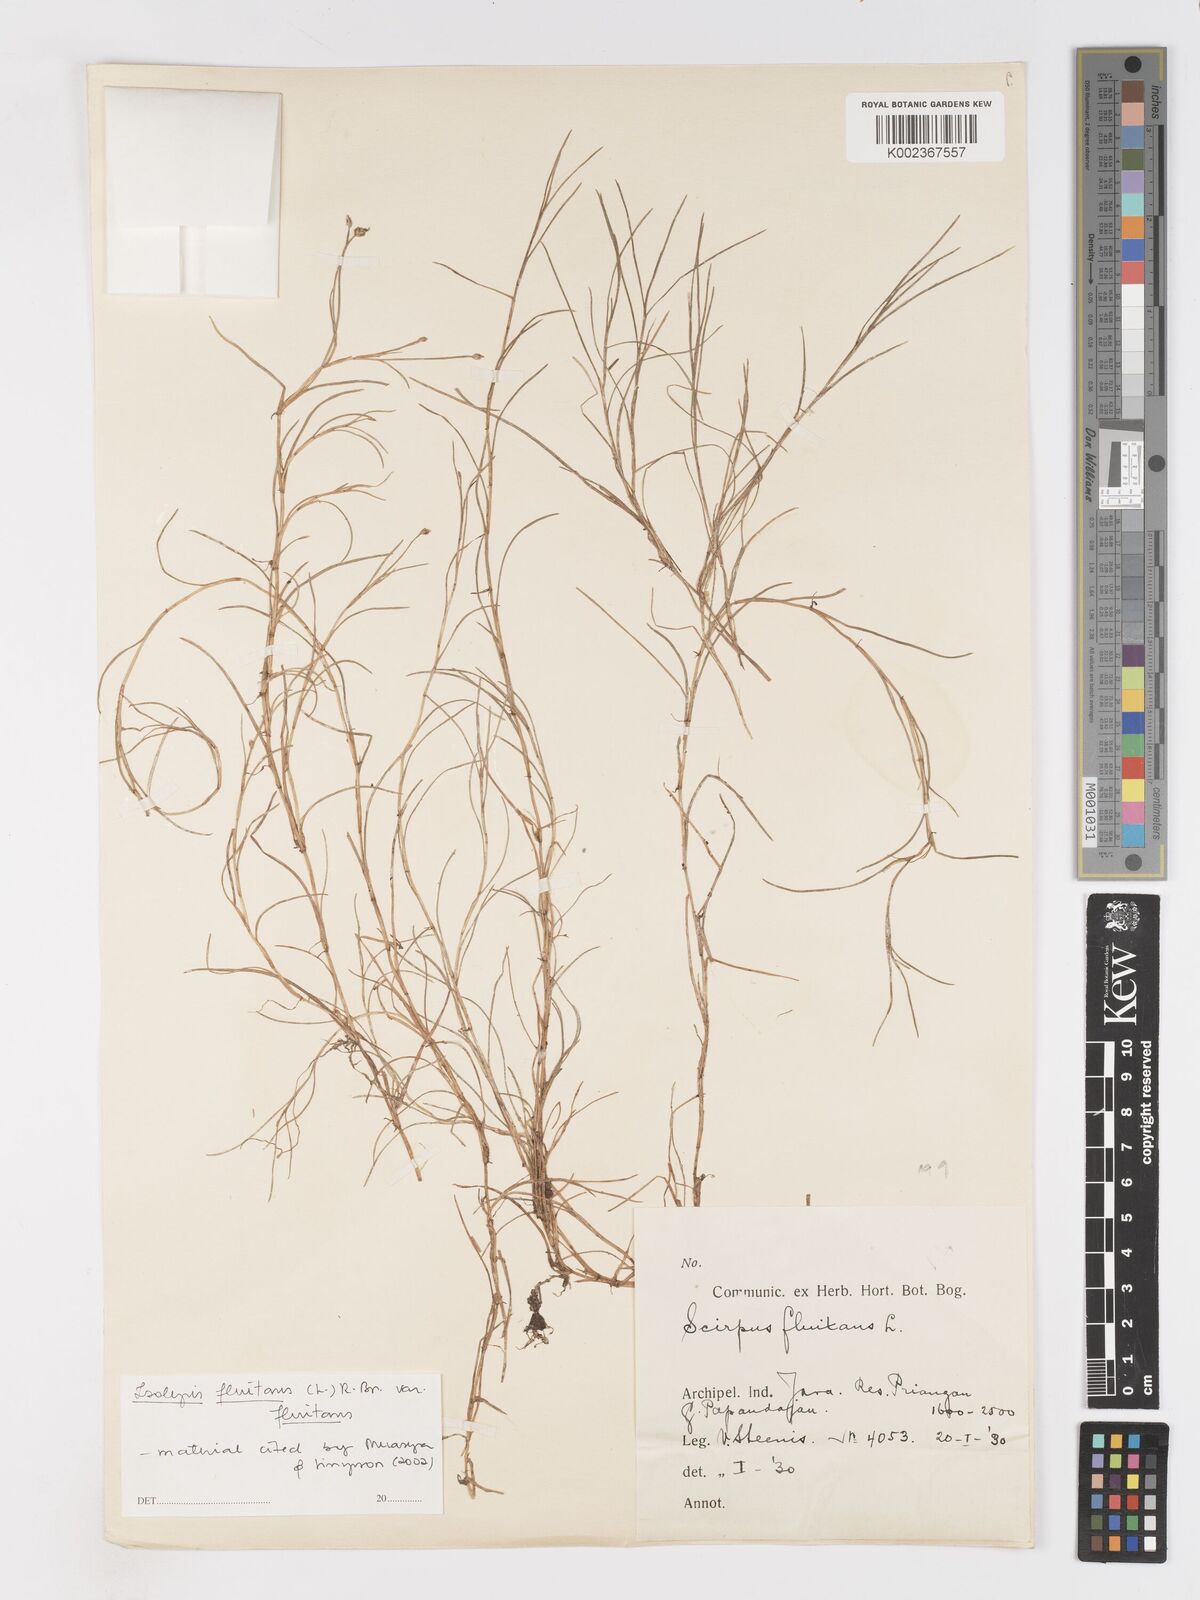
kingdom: Plantae
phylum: Tracheophyta
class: Liliopsida
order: Poales
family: Cyperaceae
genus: Isolepis
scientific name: Isolepis fluitans
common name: Floating club-rush
